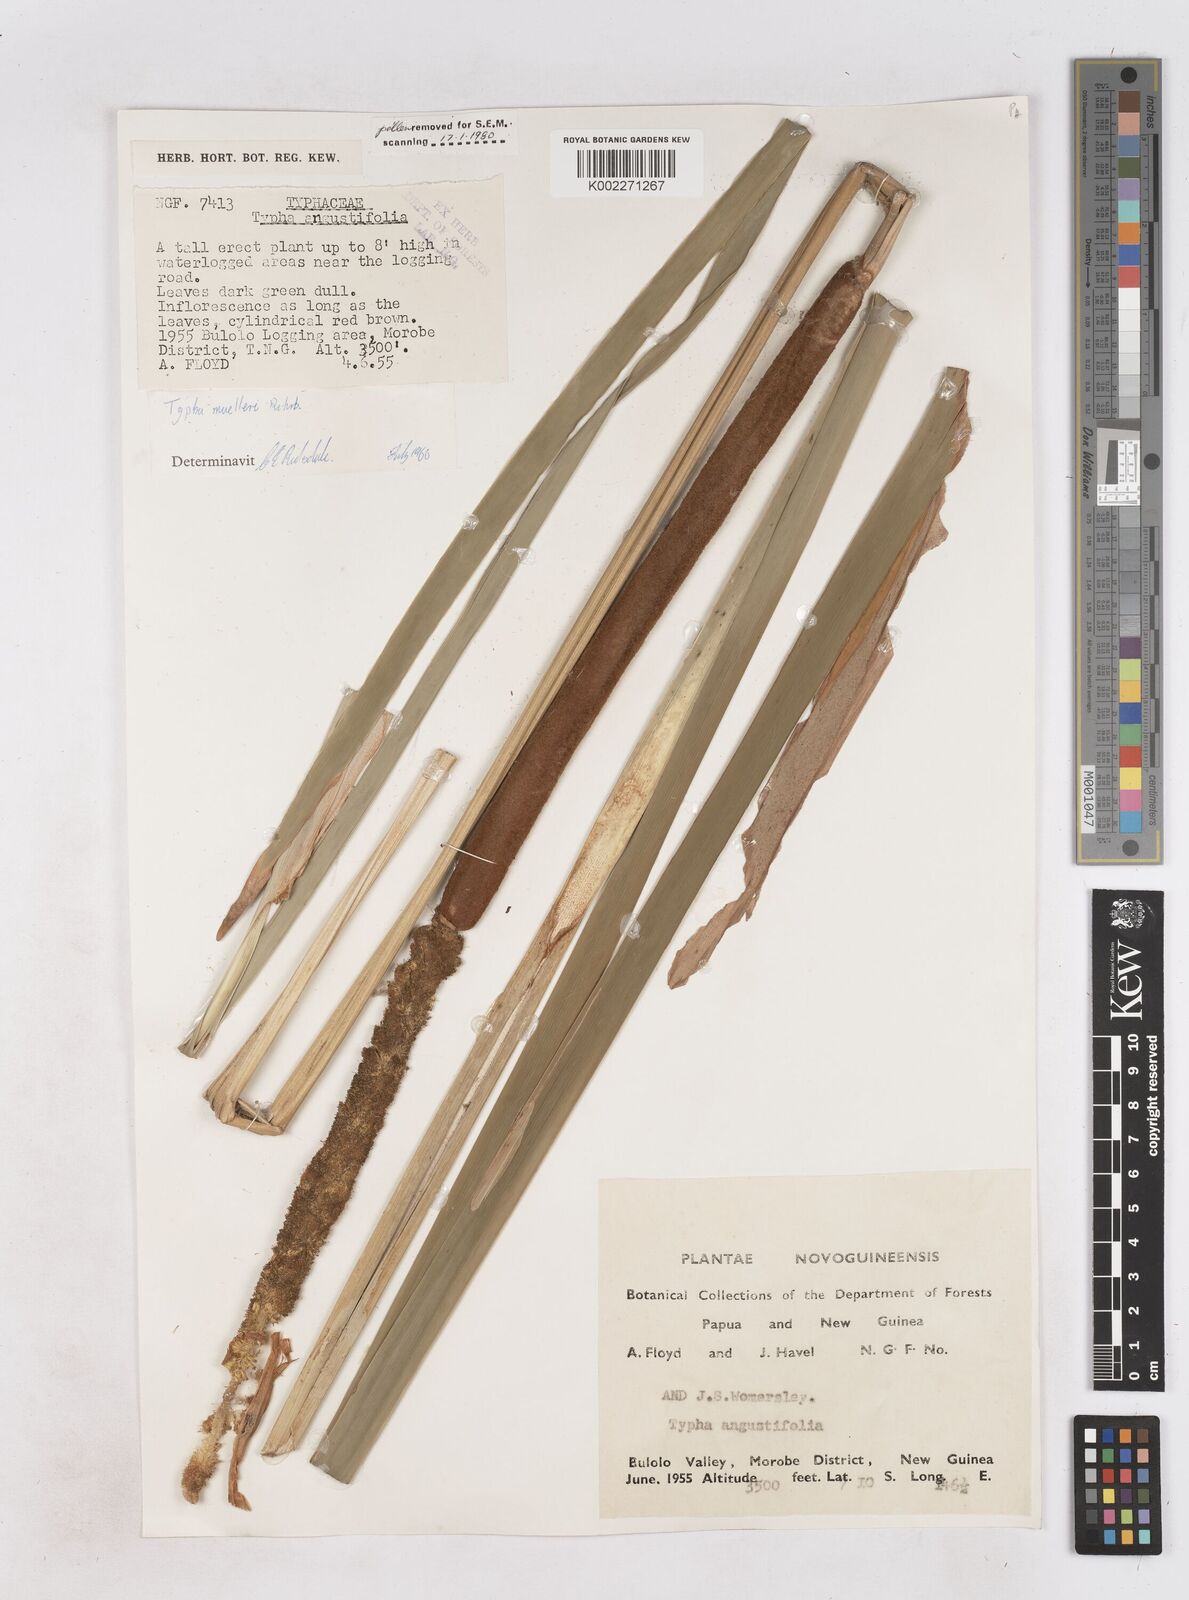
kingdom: Plantae
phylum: Tracheophyta
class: Liliopsida
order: Poales
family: Typhaceae
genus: Typha
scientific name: Typha angustifolia
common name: Lesser bulrush
